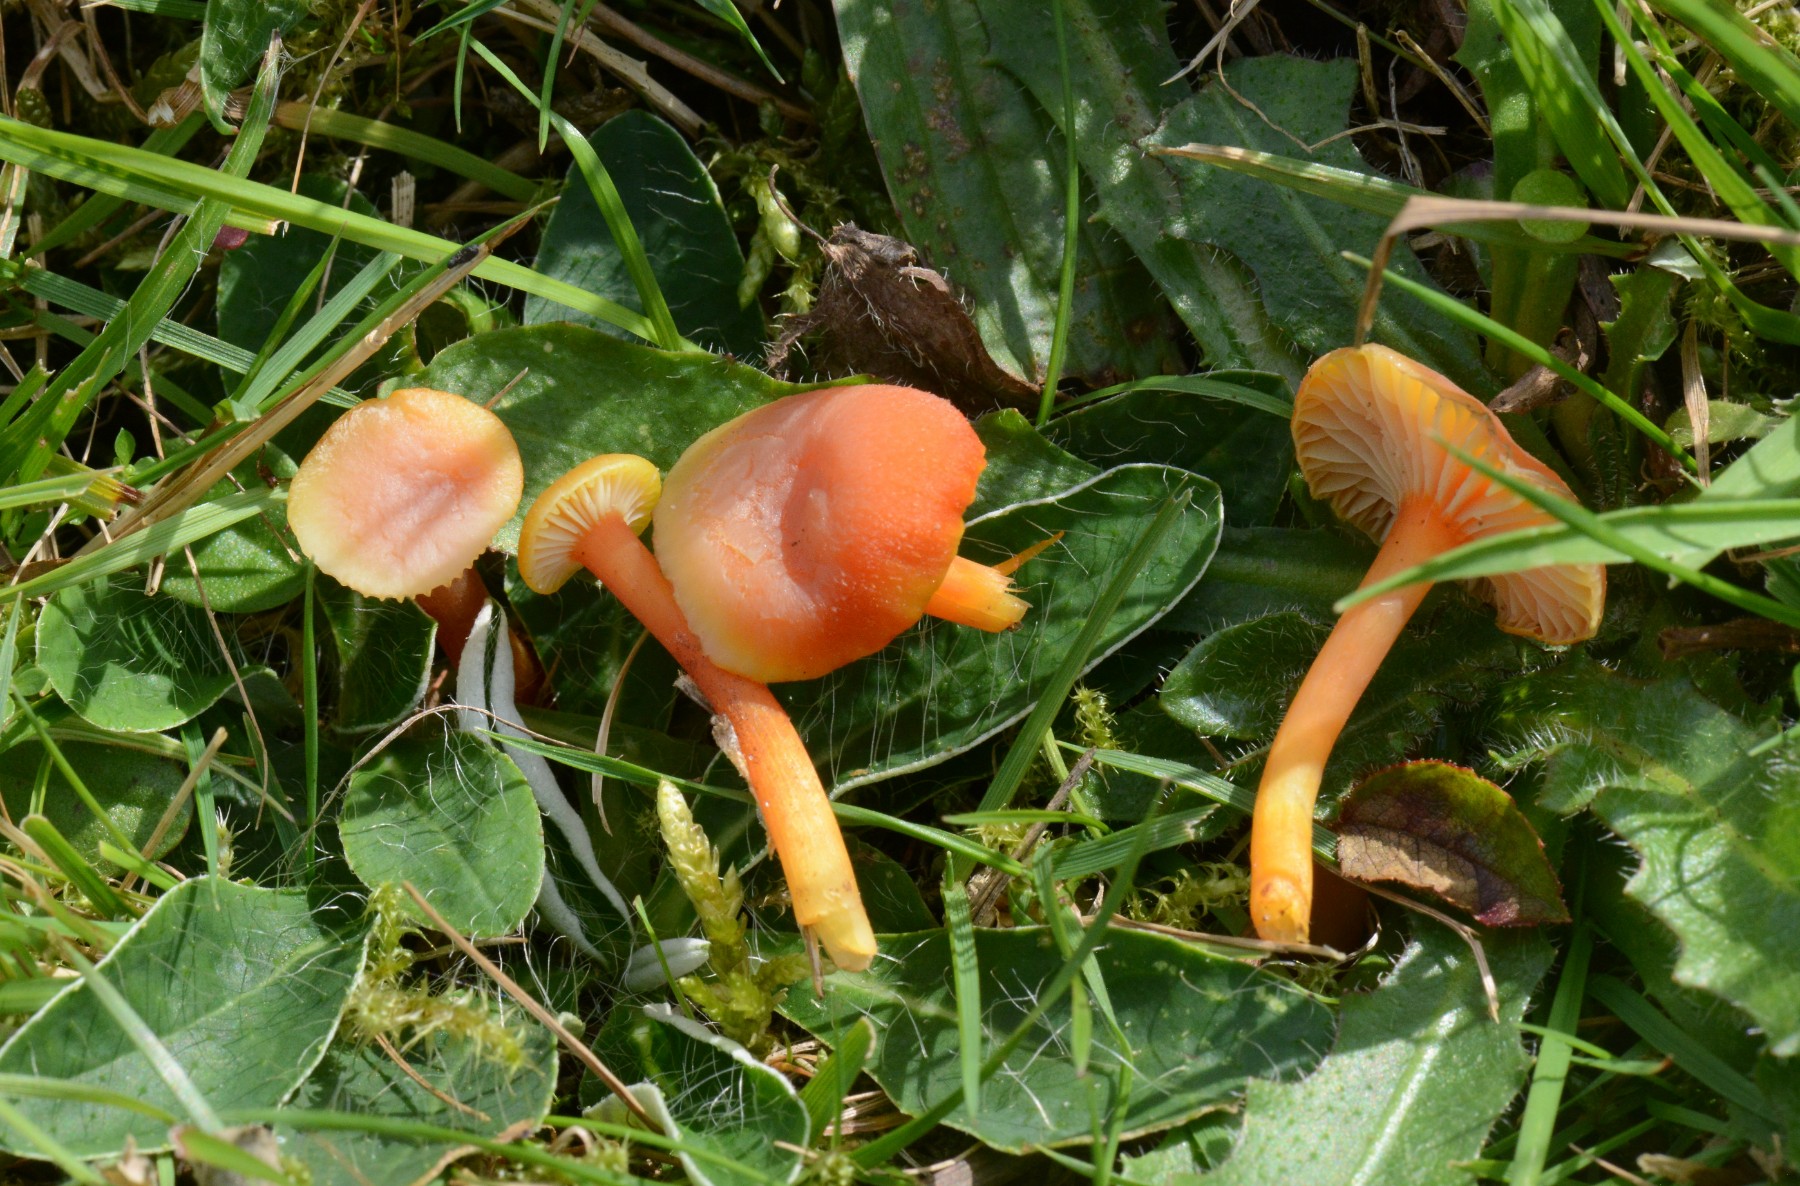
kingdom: Fungi
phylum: Basidiomycota
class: Agaricomycetes
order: Agaricales
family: Hygrophoraceae
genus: Hygrocybe
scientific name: Hygrocybe miniata
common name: mønje-vokshat
